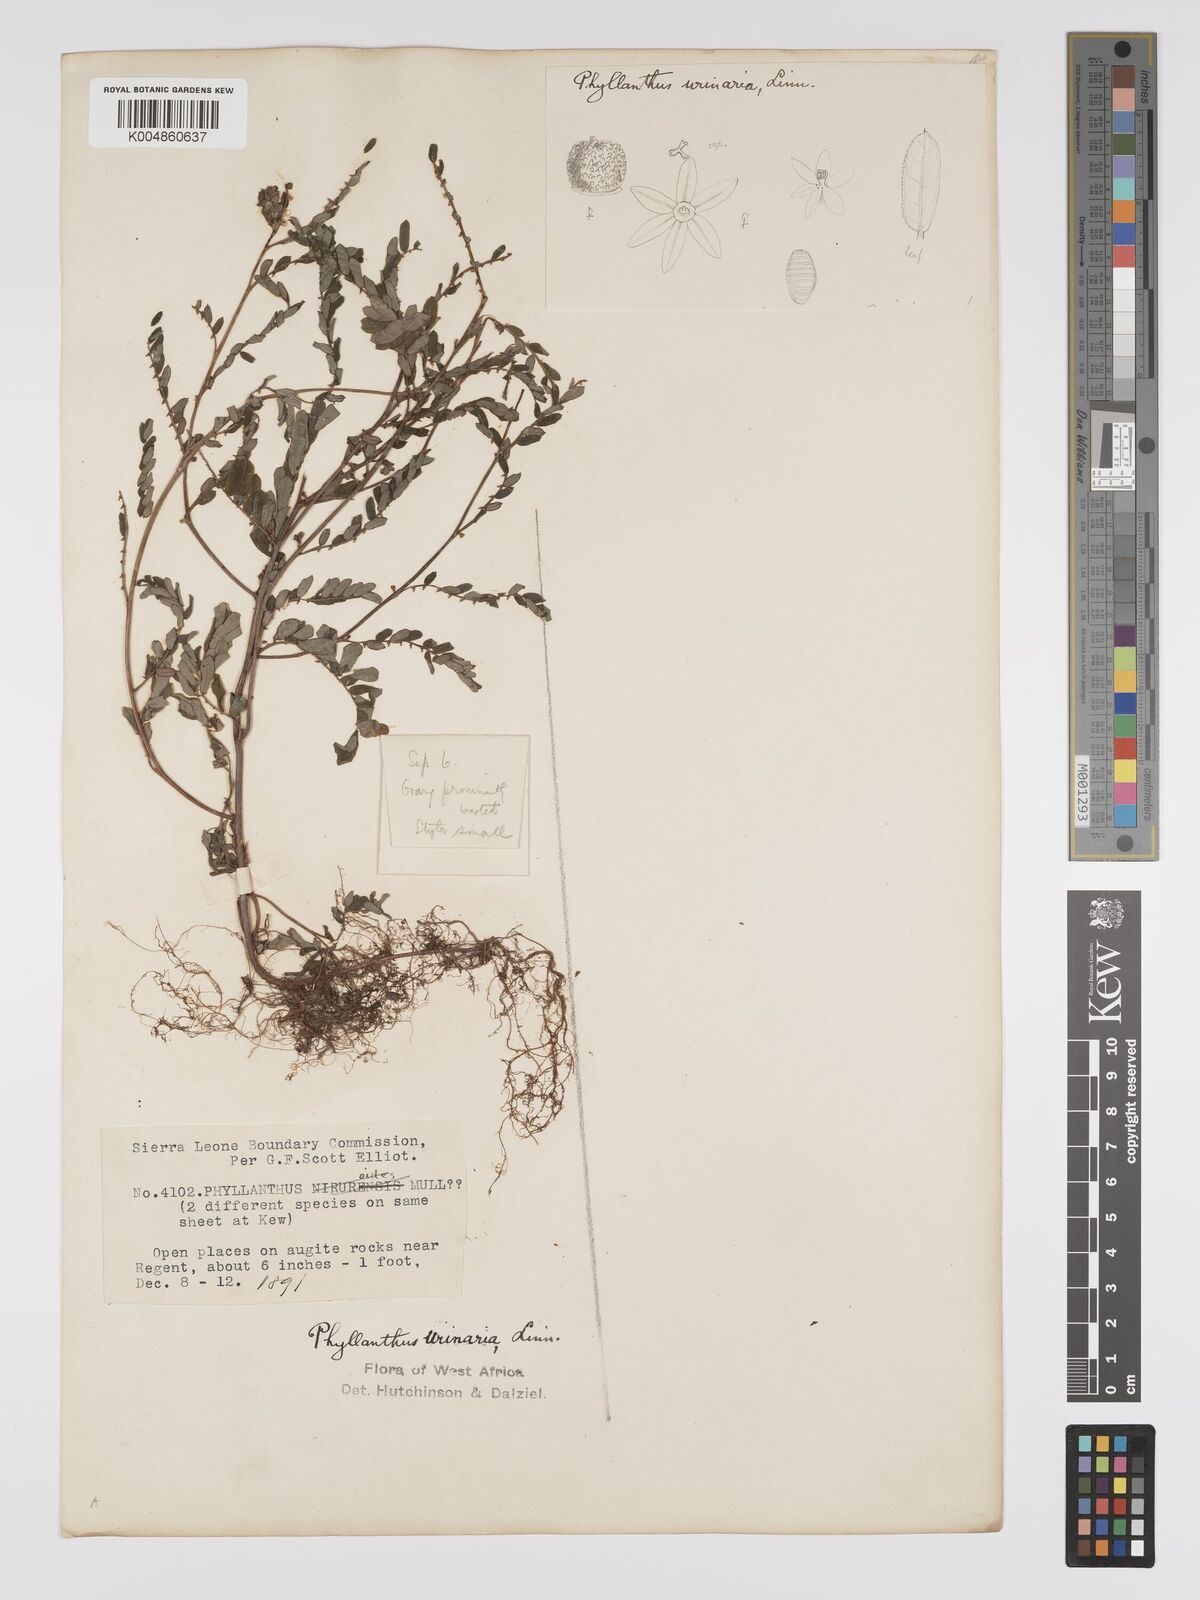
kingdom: Plantae
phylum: Tracheophyta
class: Magnoliopsida
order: Malpighiales
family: Phyllanthaceae
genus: Phyllanthus
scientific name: Phyllanthus urinaria
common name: Chamber bitter
